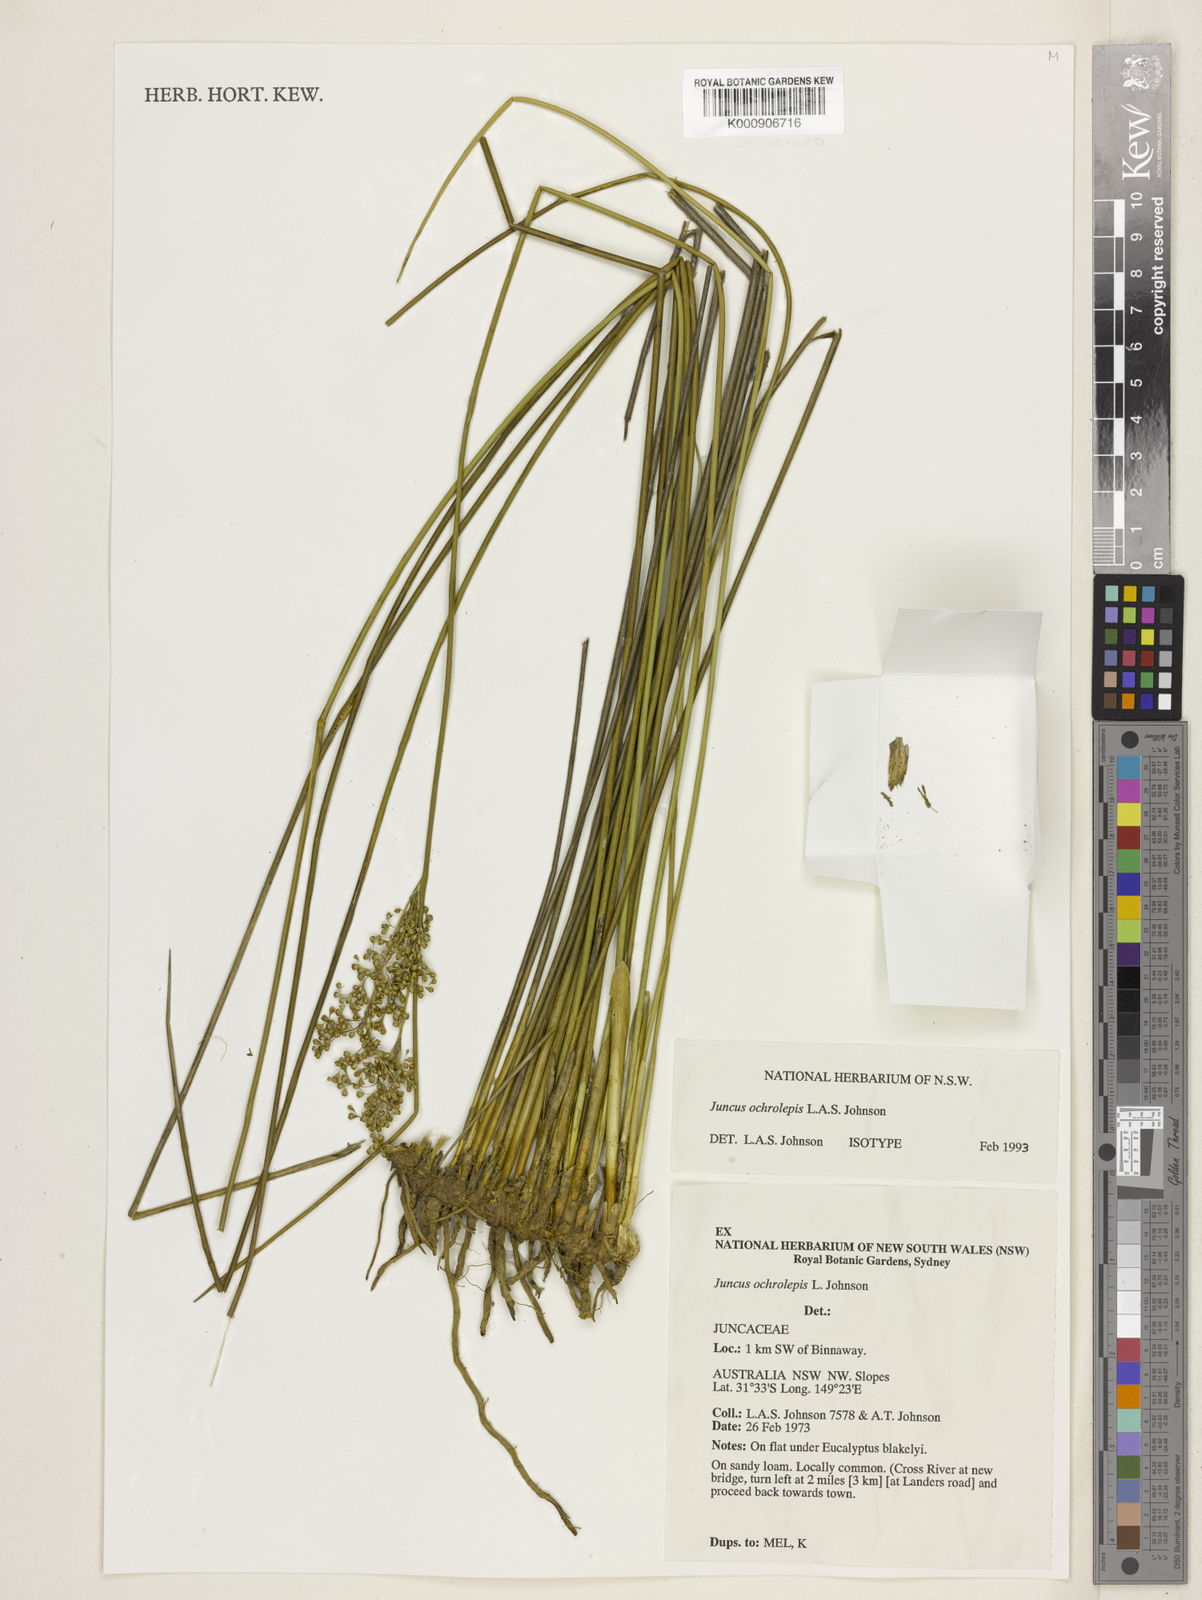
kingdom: Plantae
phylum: Tracheophyta
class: Liliopsida
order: Poales
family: Juncaceae
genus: Juncus
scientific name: Juncus
